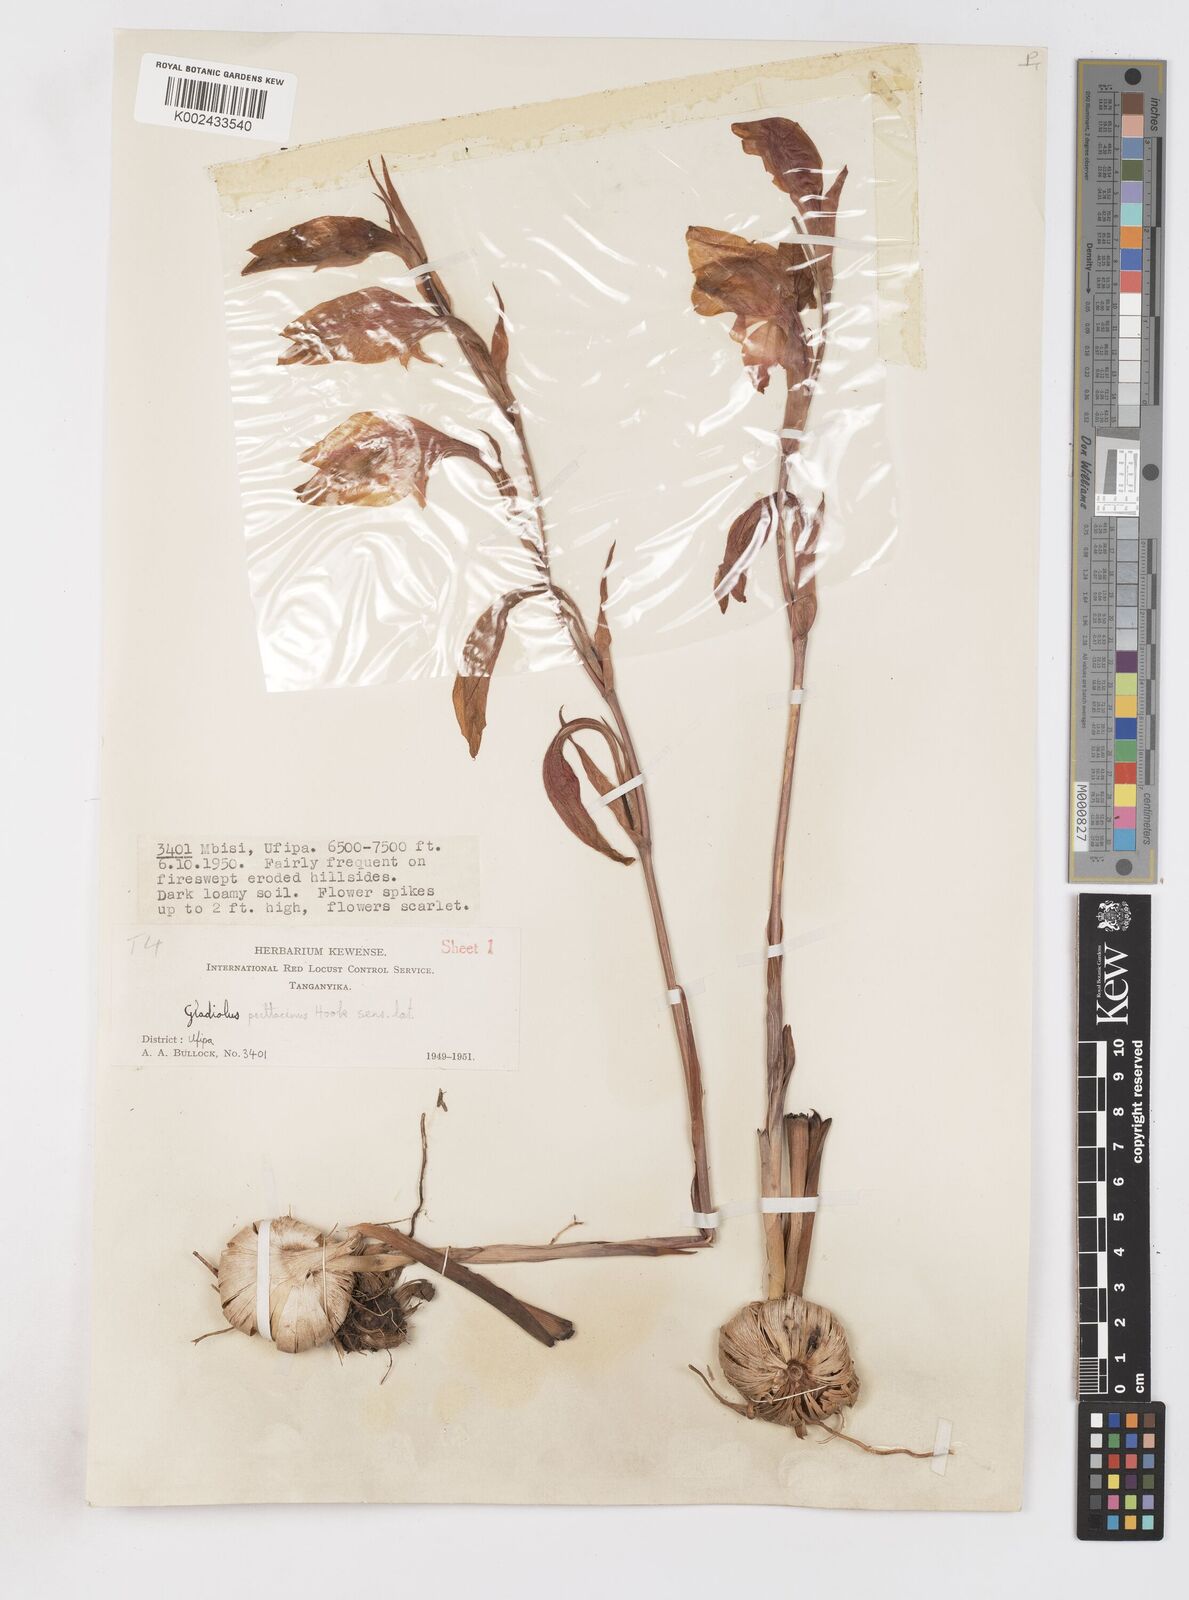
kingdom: Plantae
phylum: Tracheophyta
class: Liliopsida
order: Asparagales
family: Iridaceae
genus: Gladiolus
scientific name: Gladiolus dalenii
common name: Cornflag
